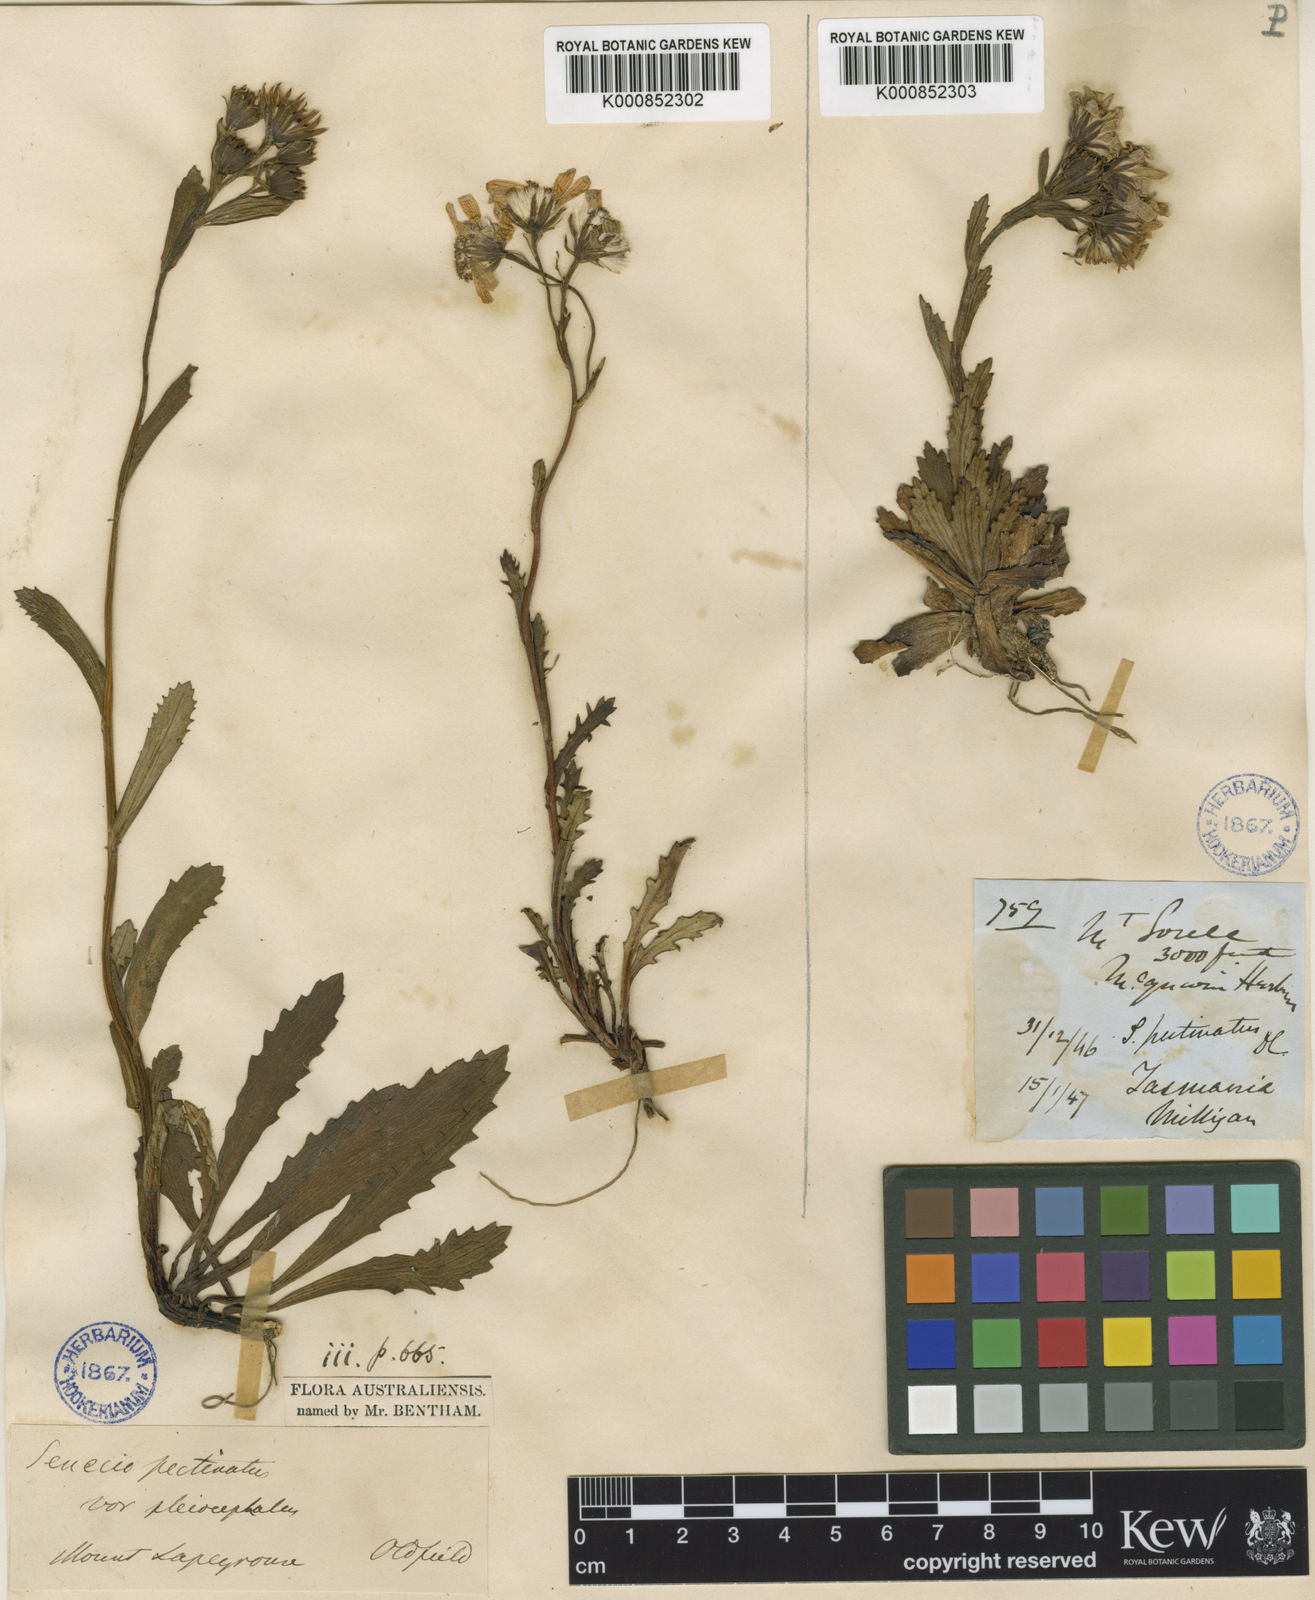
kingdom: Plantae
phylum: Tracheophyta
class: Magnoliopsida
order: Asterales
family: Asteraceae
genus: Scapisenecio
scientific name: Scapisenecio leptocarpus
